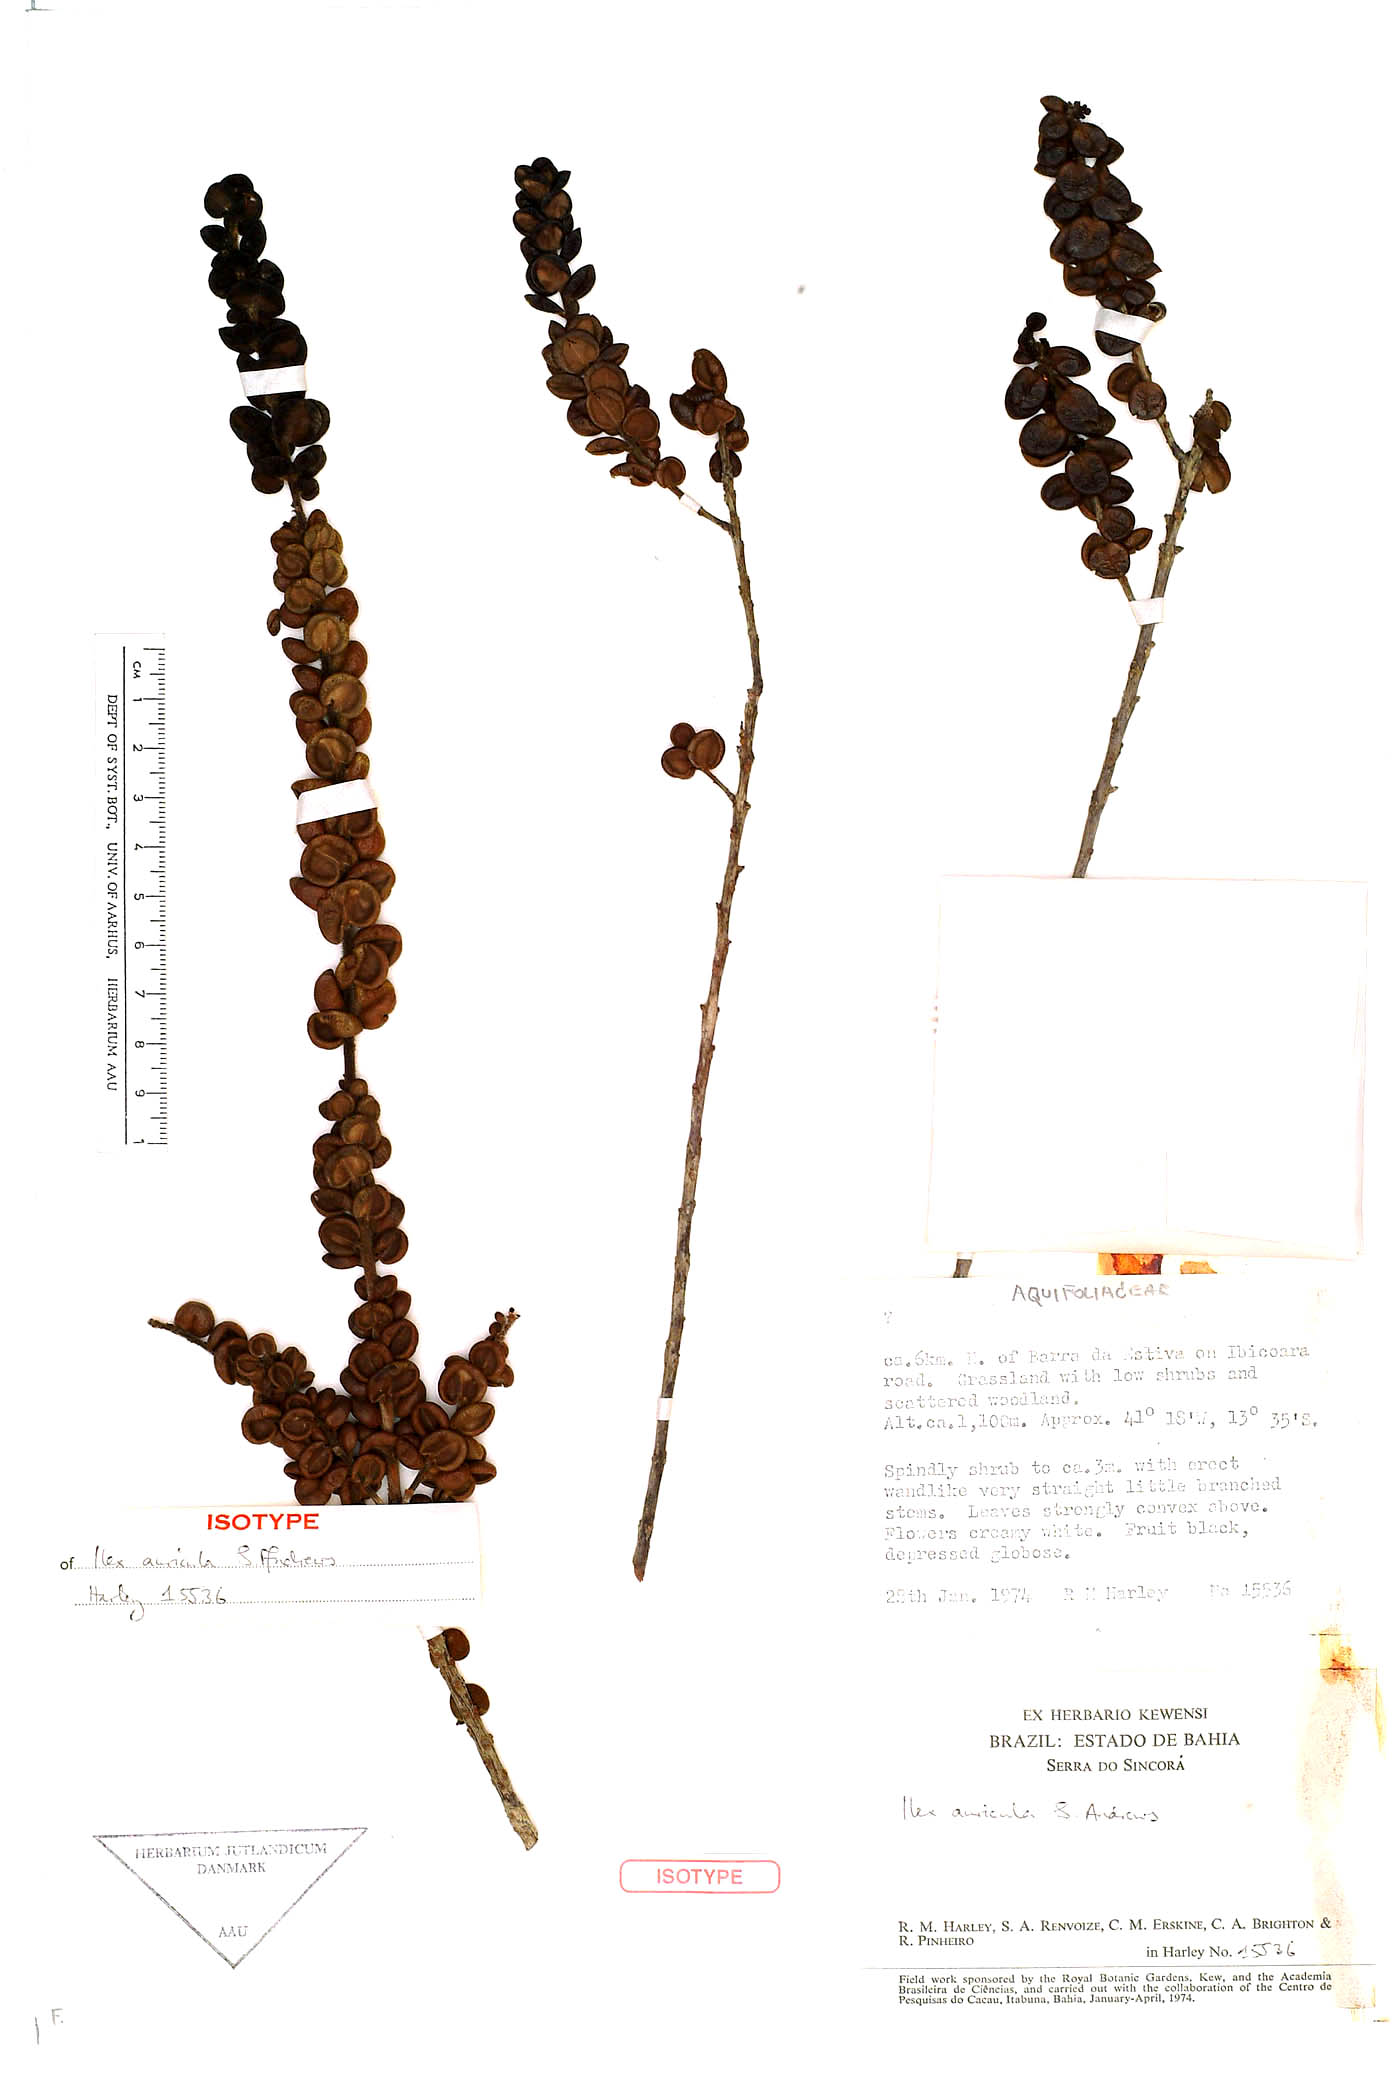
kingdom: Plantae
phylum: Tracheophyta
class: Magnoliopsida
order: Aquifoliales
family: Aquifoliaceae
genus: Ilex
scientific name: Ilex auricula
